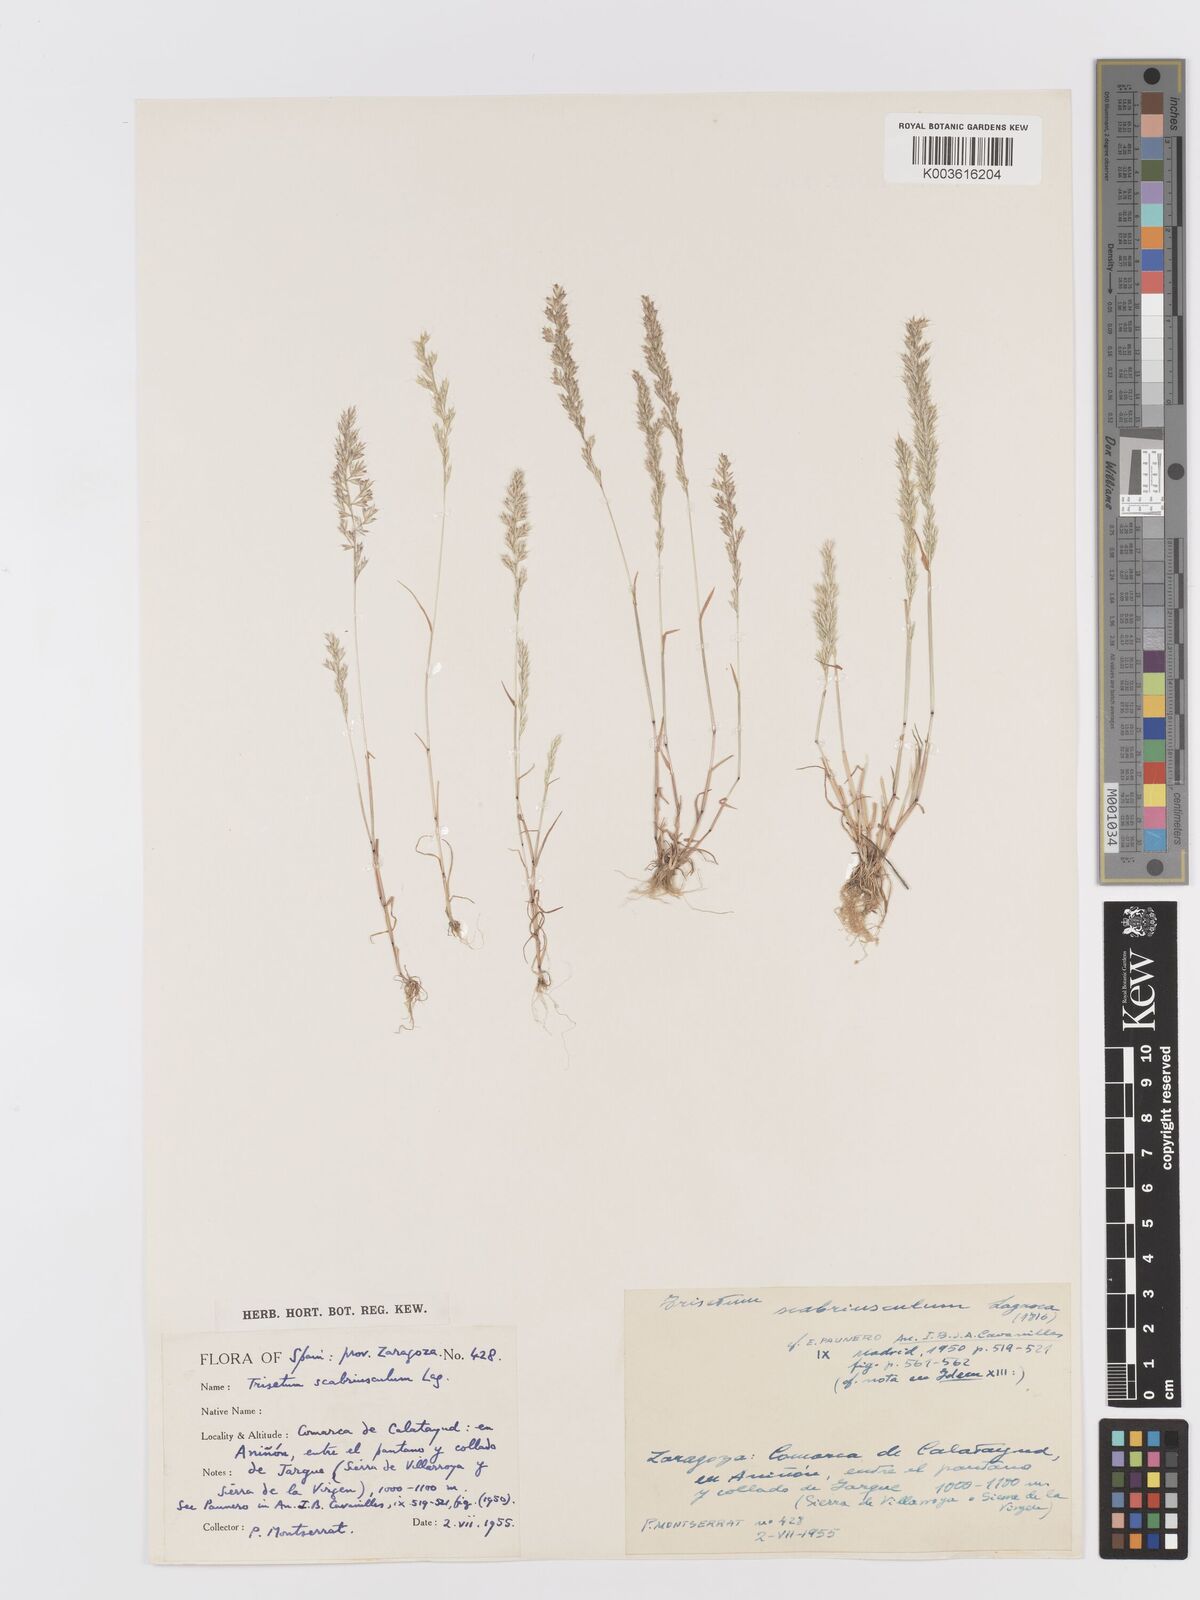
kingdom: Plantae
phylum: Tracheophyta
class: Liliopsida
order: Poales
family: Poaceae
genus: Trisetaria
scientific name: Trisetaria scabriuscula
